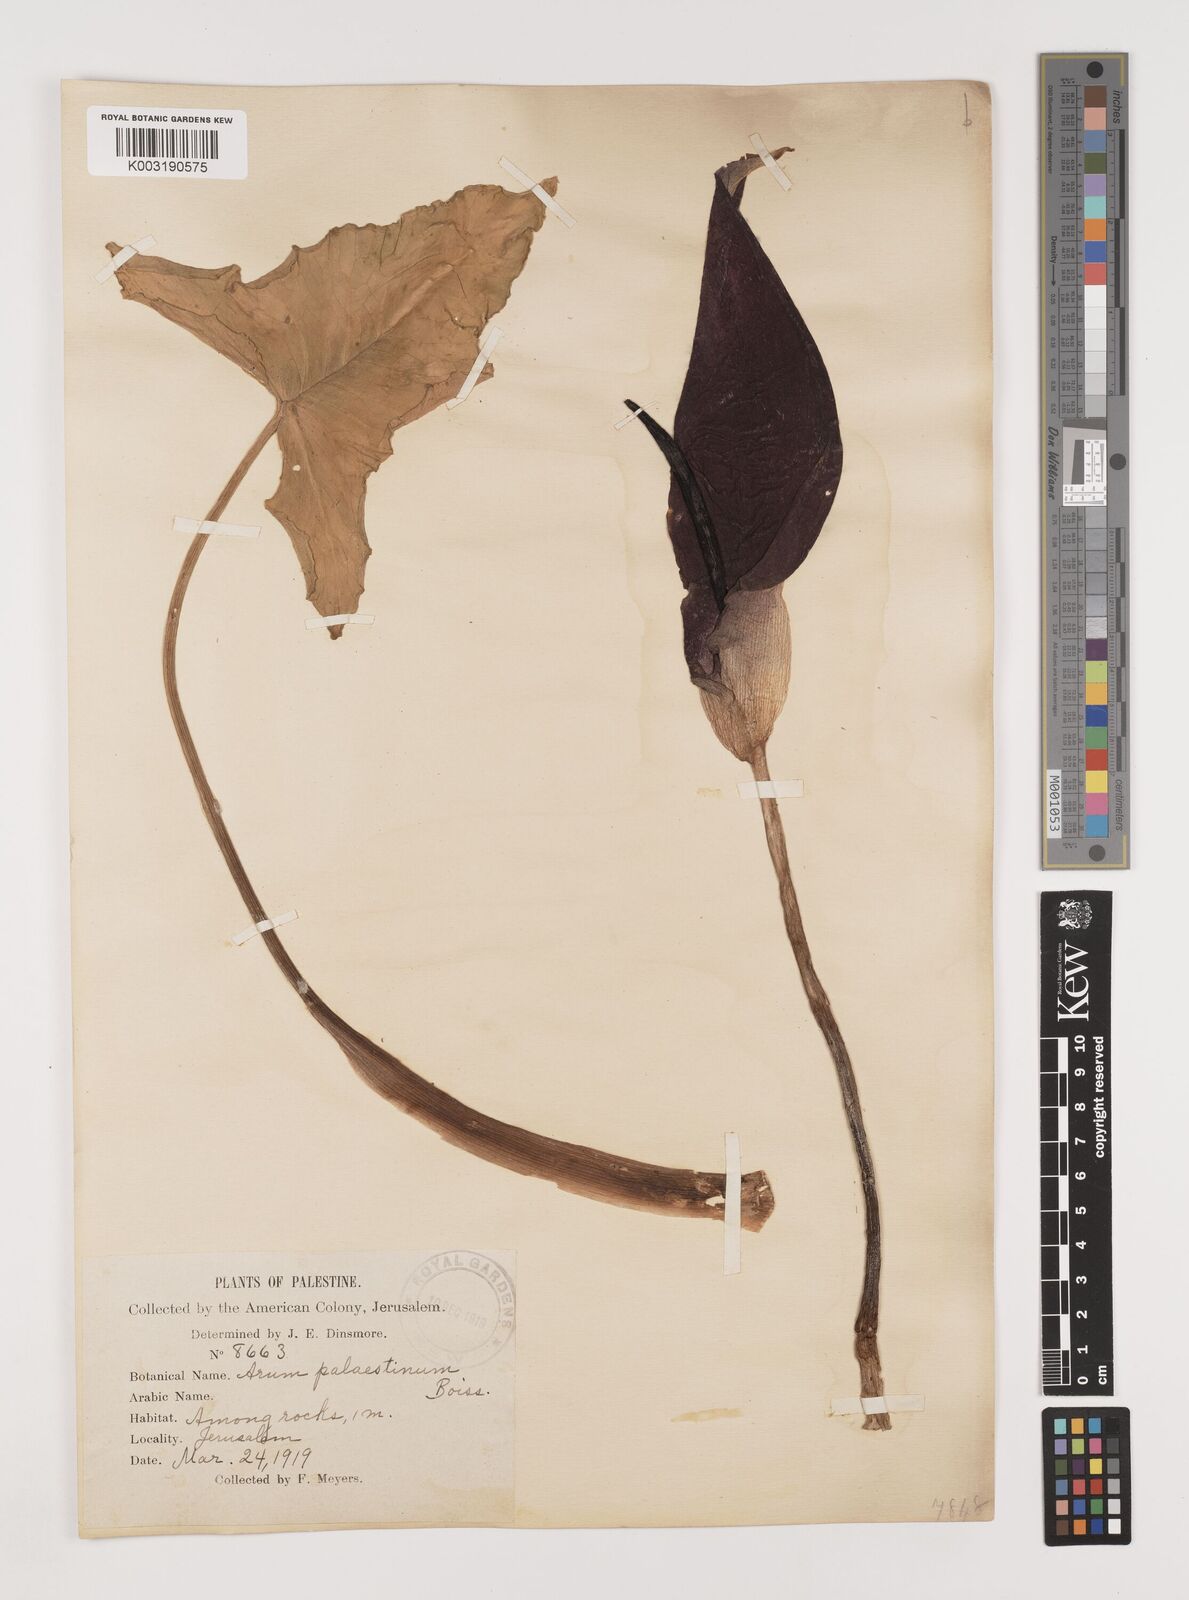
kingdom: Plantae
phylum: Tracheophyta
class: Liliopsida
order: Alismatales
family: Araceae
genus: Arum
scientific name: Arum palaestinum
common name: Solomon's lily
